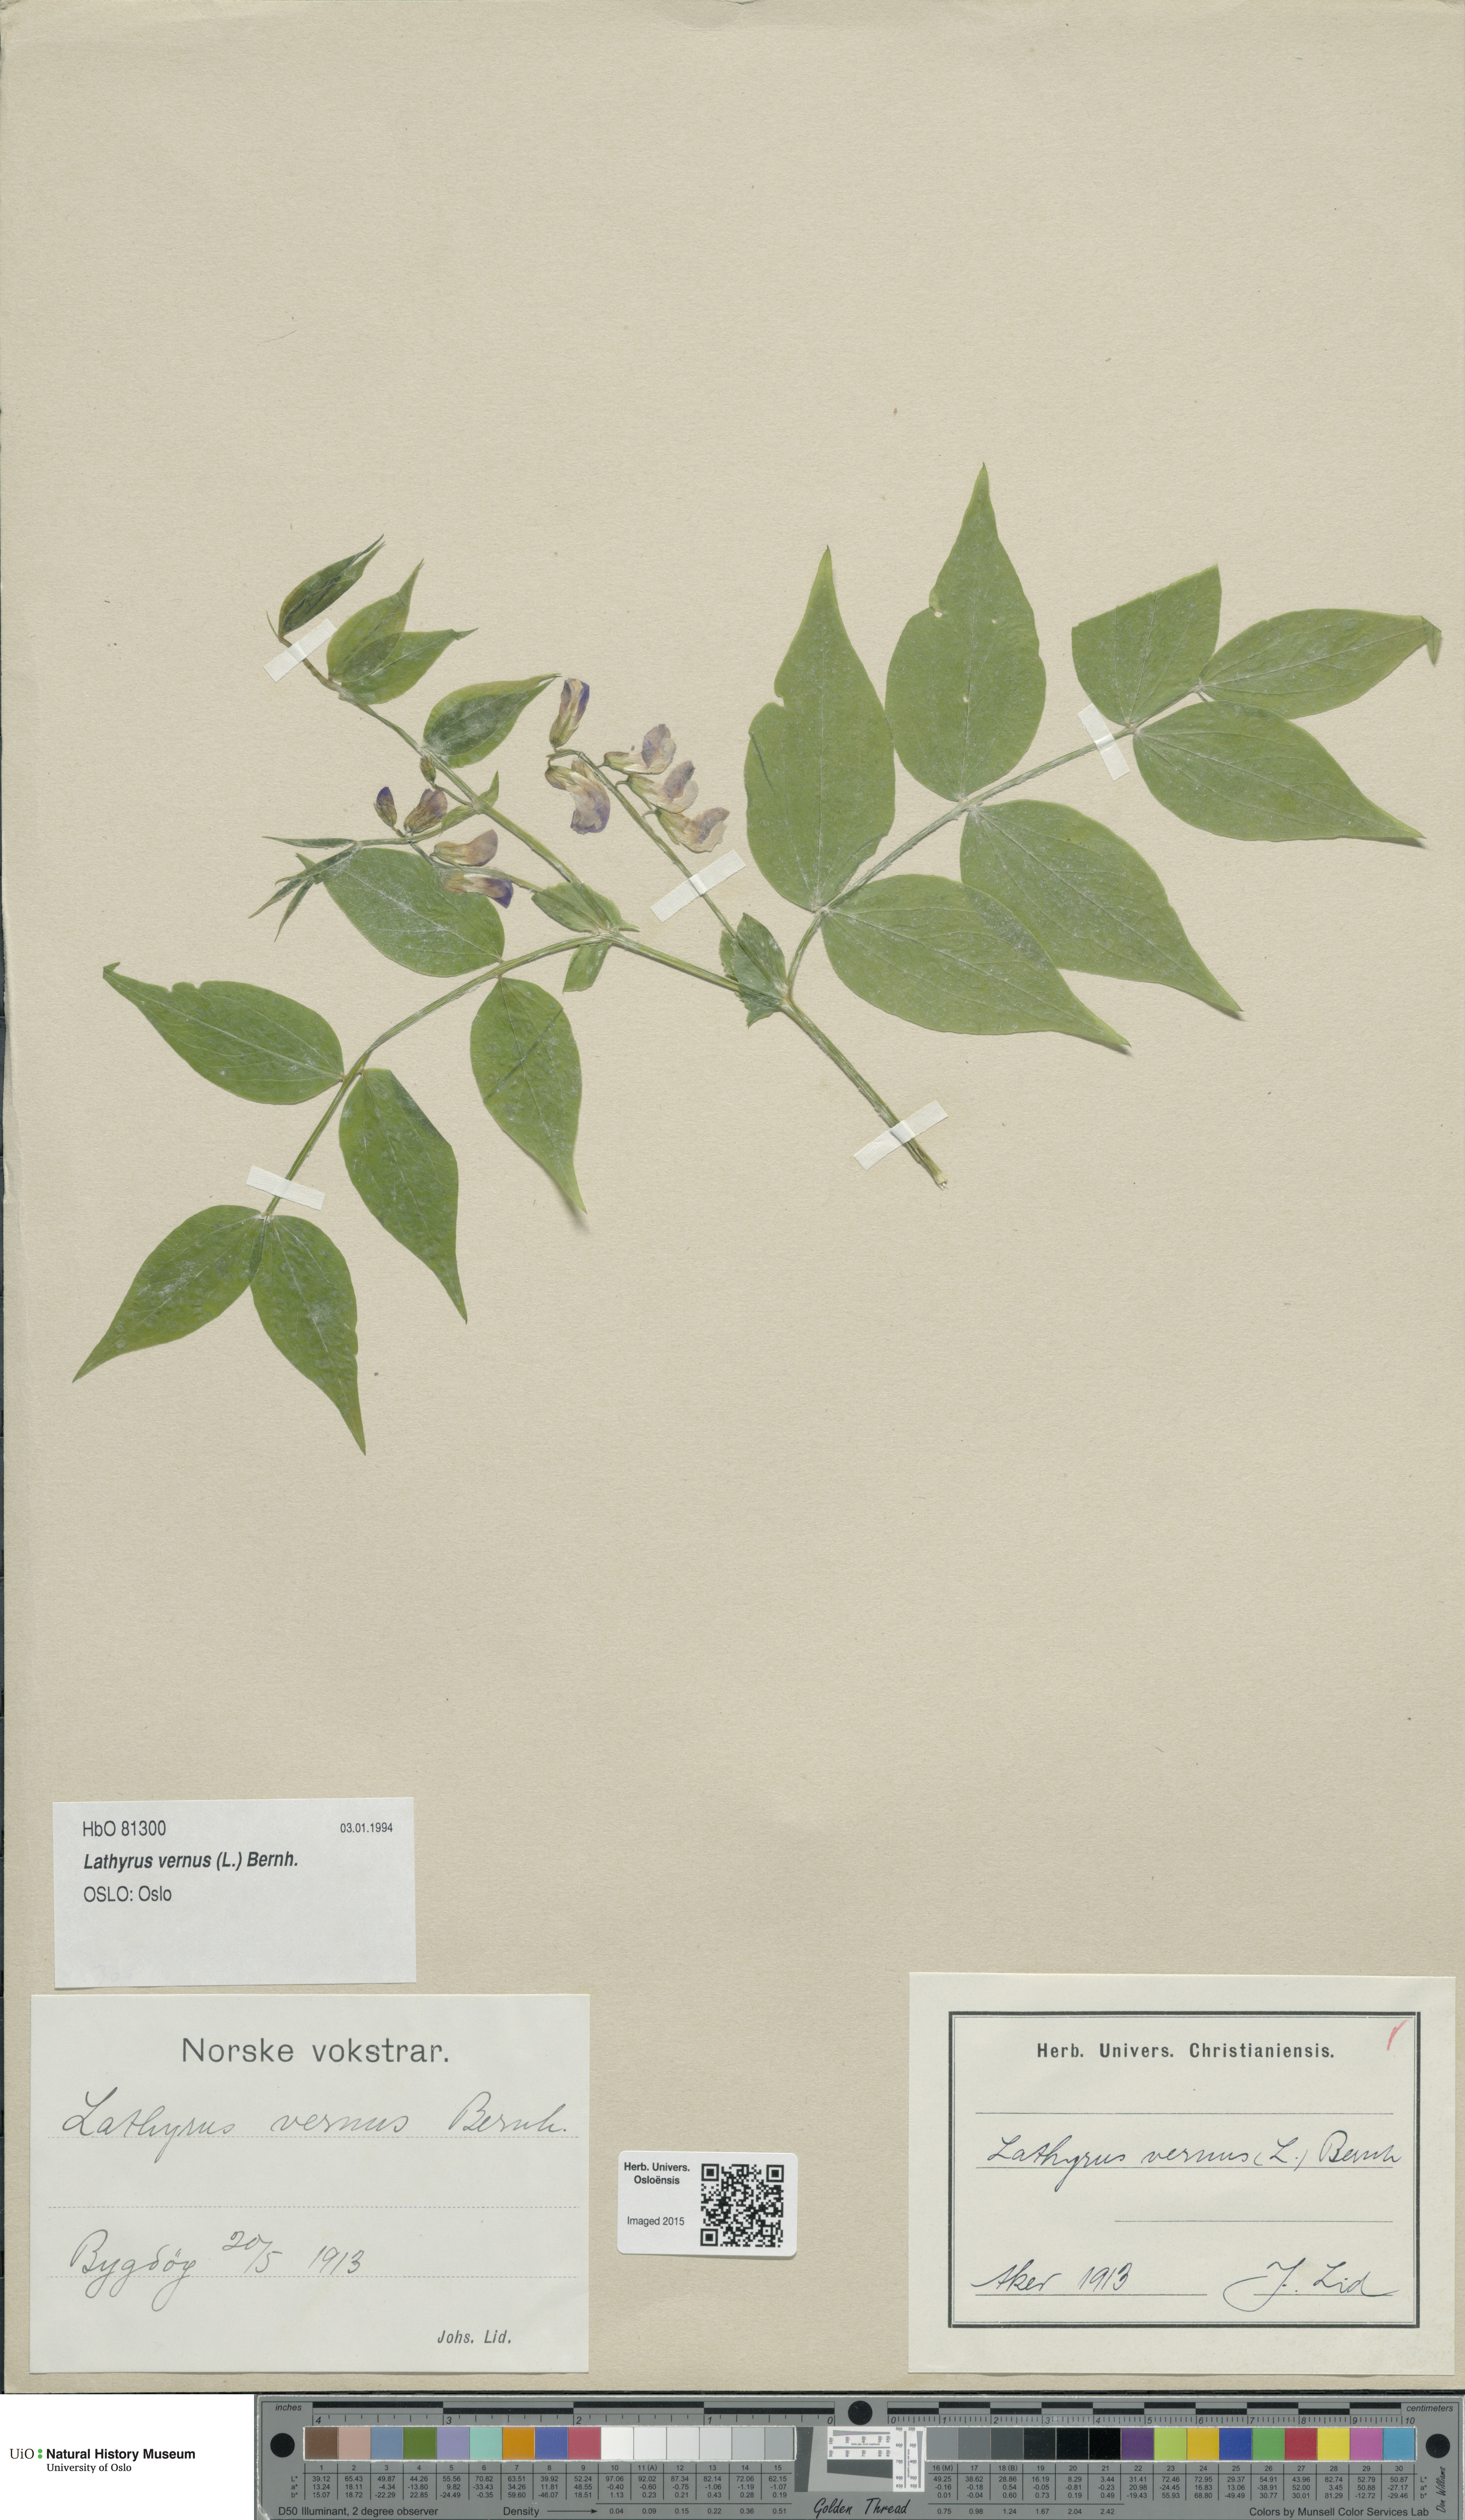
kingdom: Plantae
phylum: Tracheophyta
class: Magnoliopsida
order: Fabales
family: Fabaceae
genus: Lathyrus
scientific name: Lathyrus vernus
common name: Spring pea
